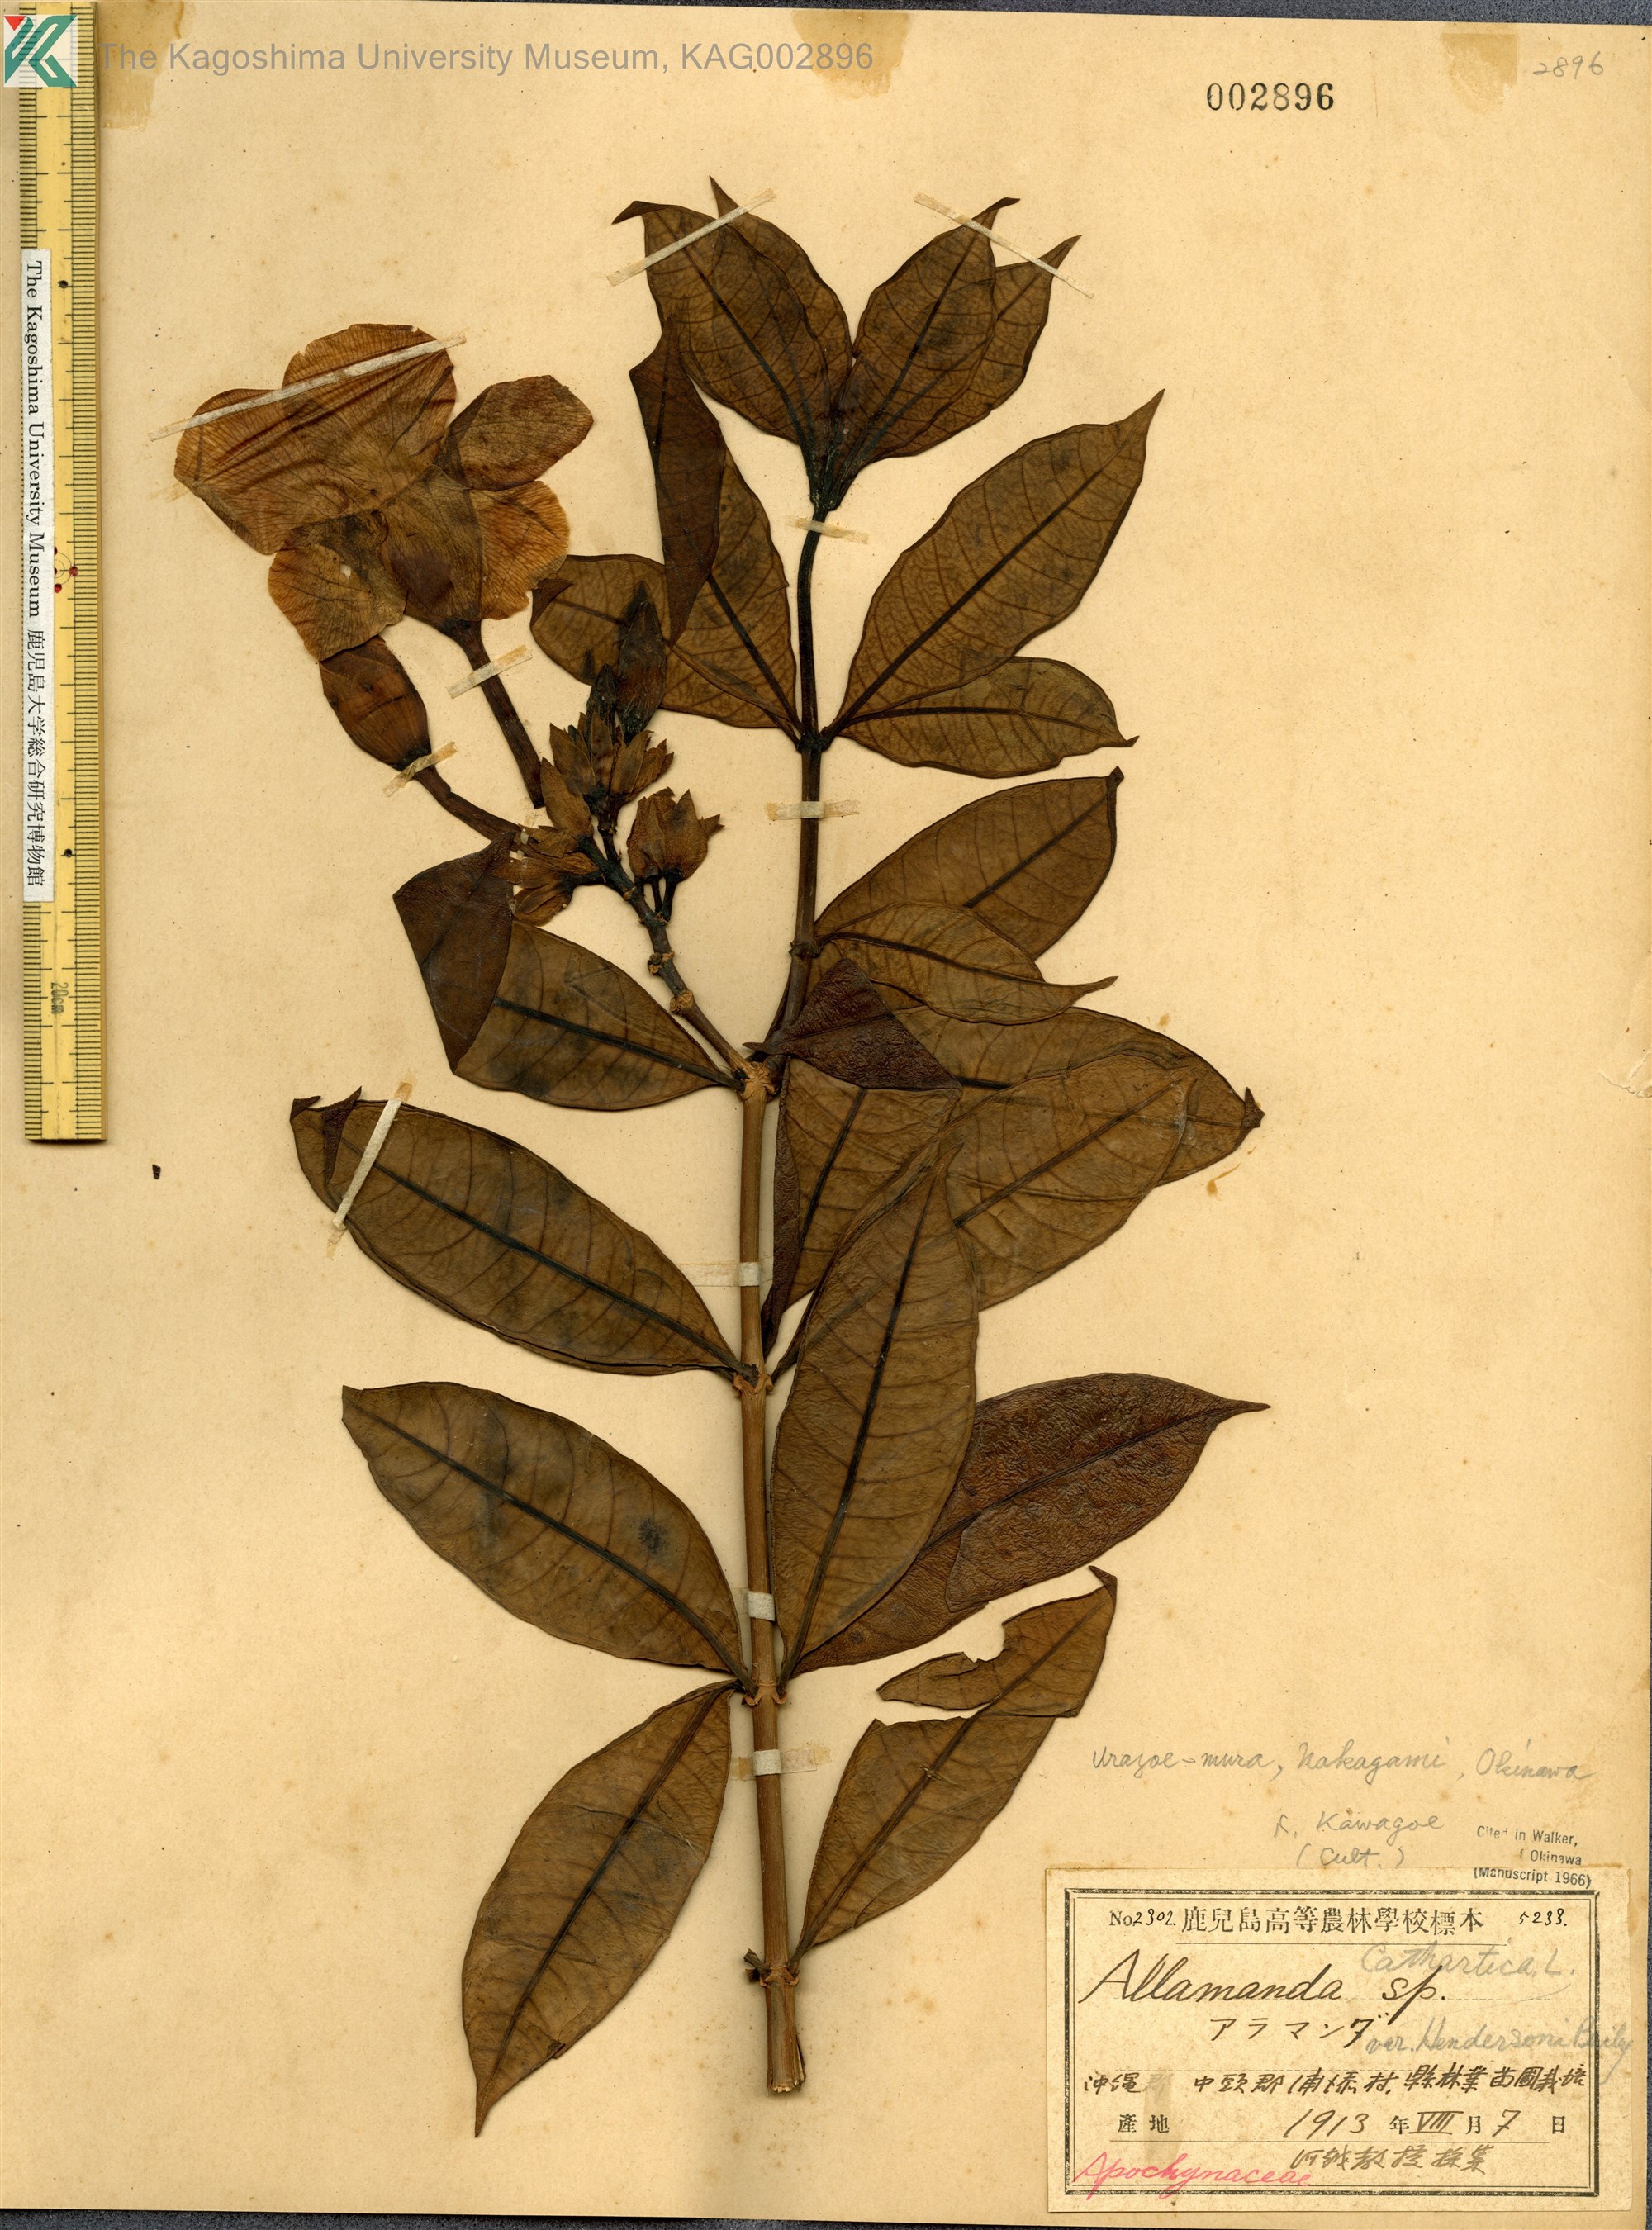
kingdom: Plantae
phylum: Tracheophyta
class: Magnoliopsida
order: Gentianales
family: Apocynaceae
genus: Allamanda
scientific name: Allamanda cathartica
